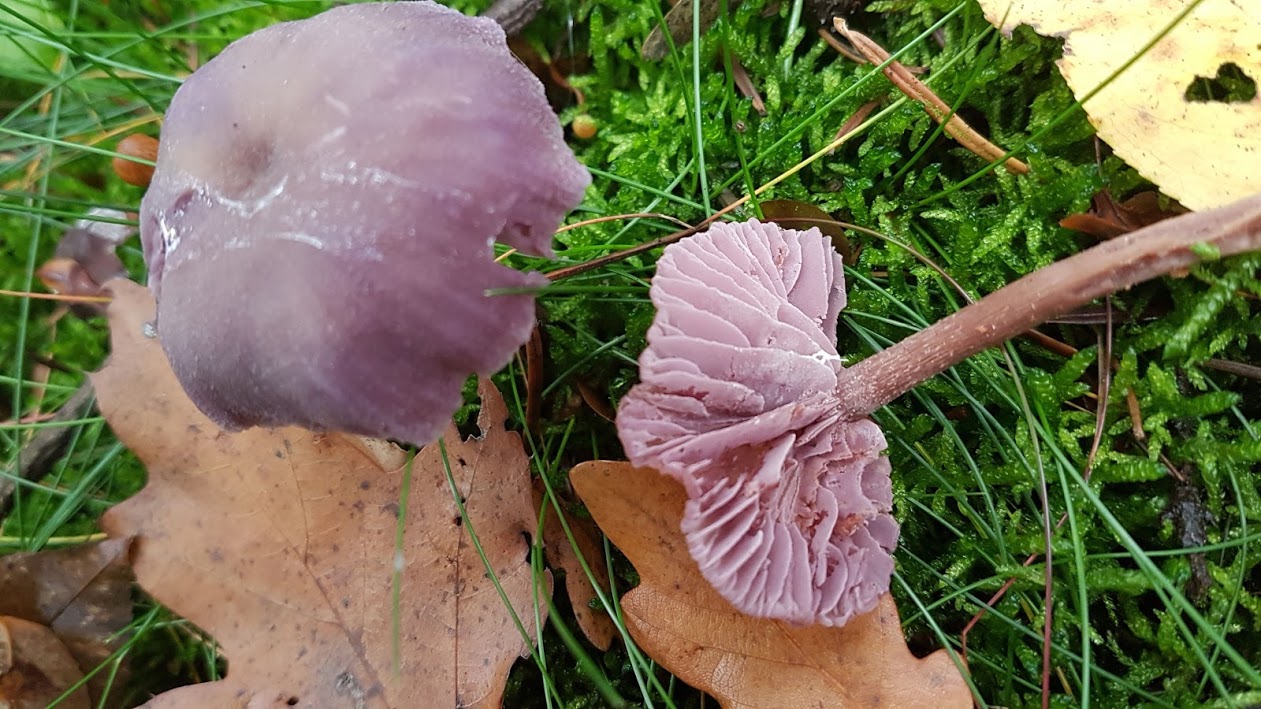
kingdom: Fungi
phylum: Basidiomycota
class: Agaricomycetes
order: Agaricales
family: Hydnangiaceae
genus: Laccaria
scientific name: Laccaria amethystina
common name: violet ametysthat
